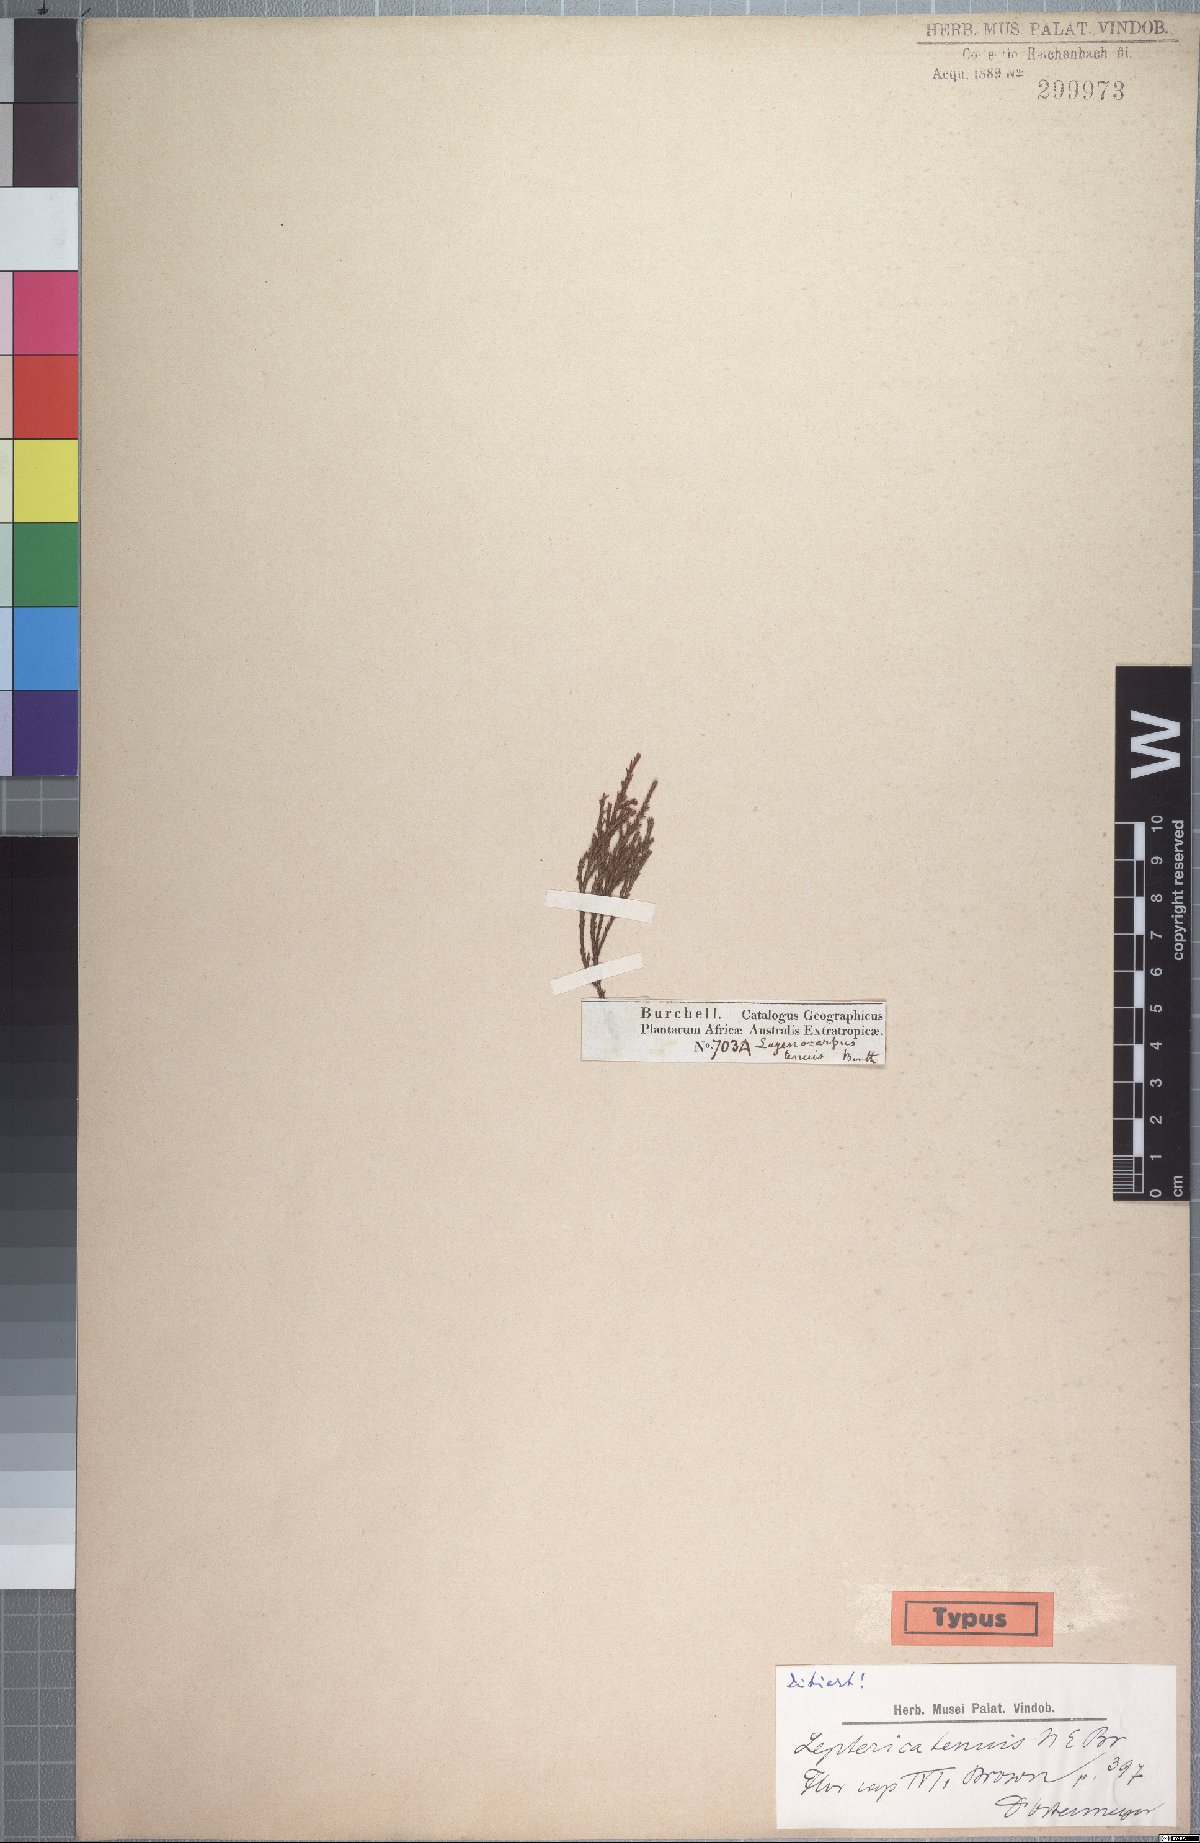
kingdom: Plantae
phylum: Tracheophyta
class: Magnoliopsida
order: Ericales
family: Ericaceae
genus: Erica
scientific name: Erica miniscula
